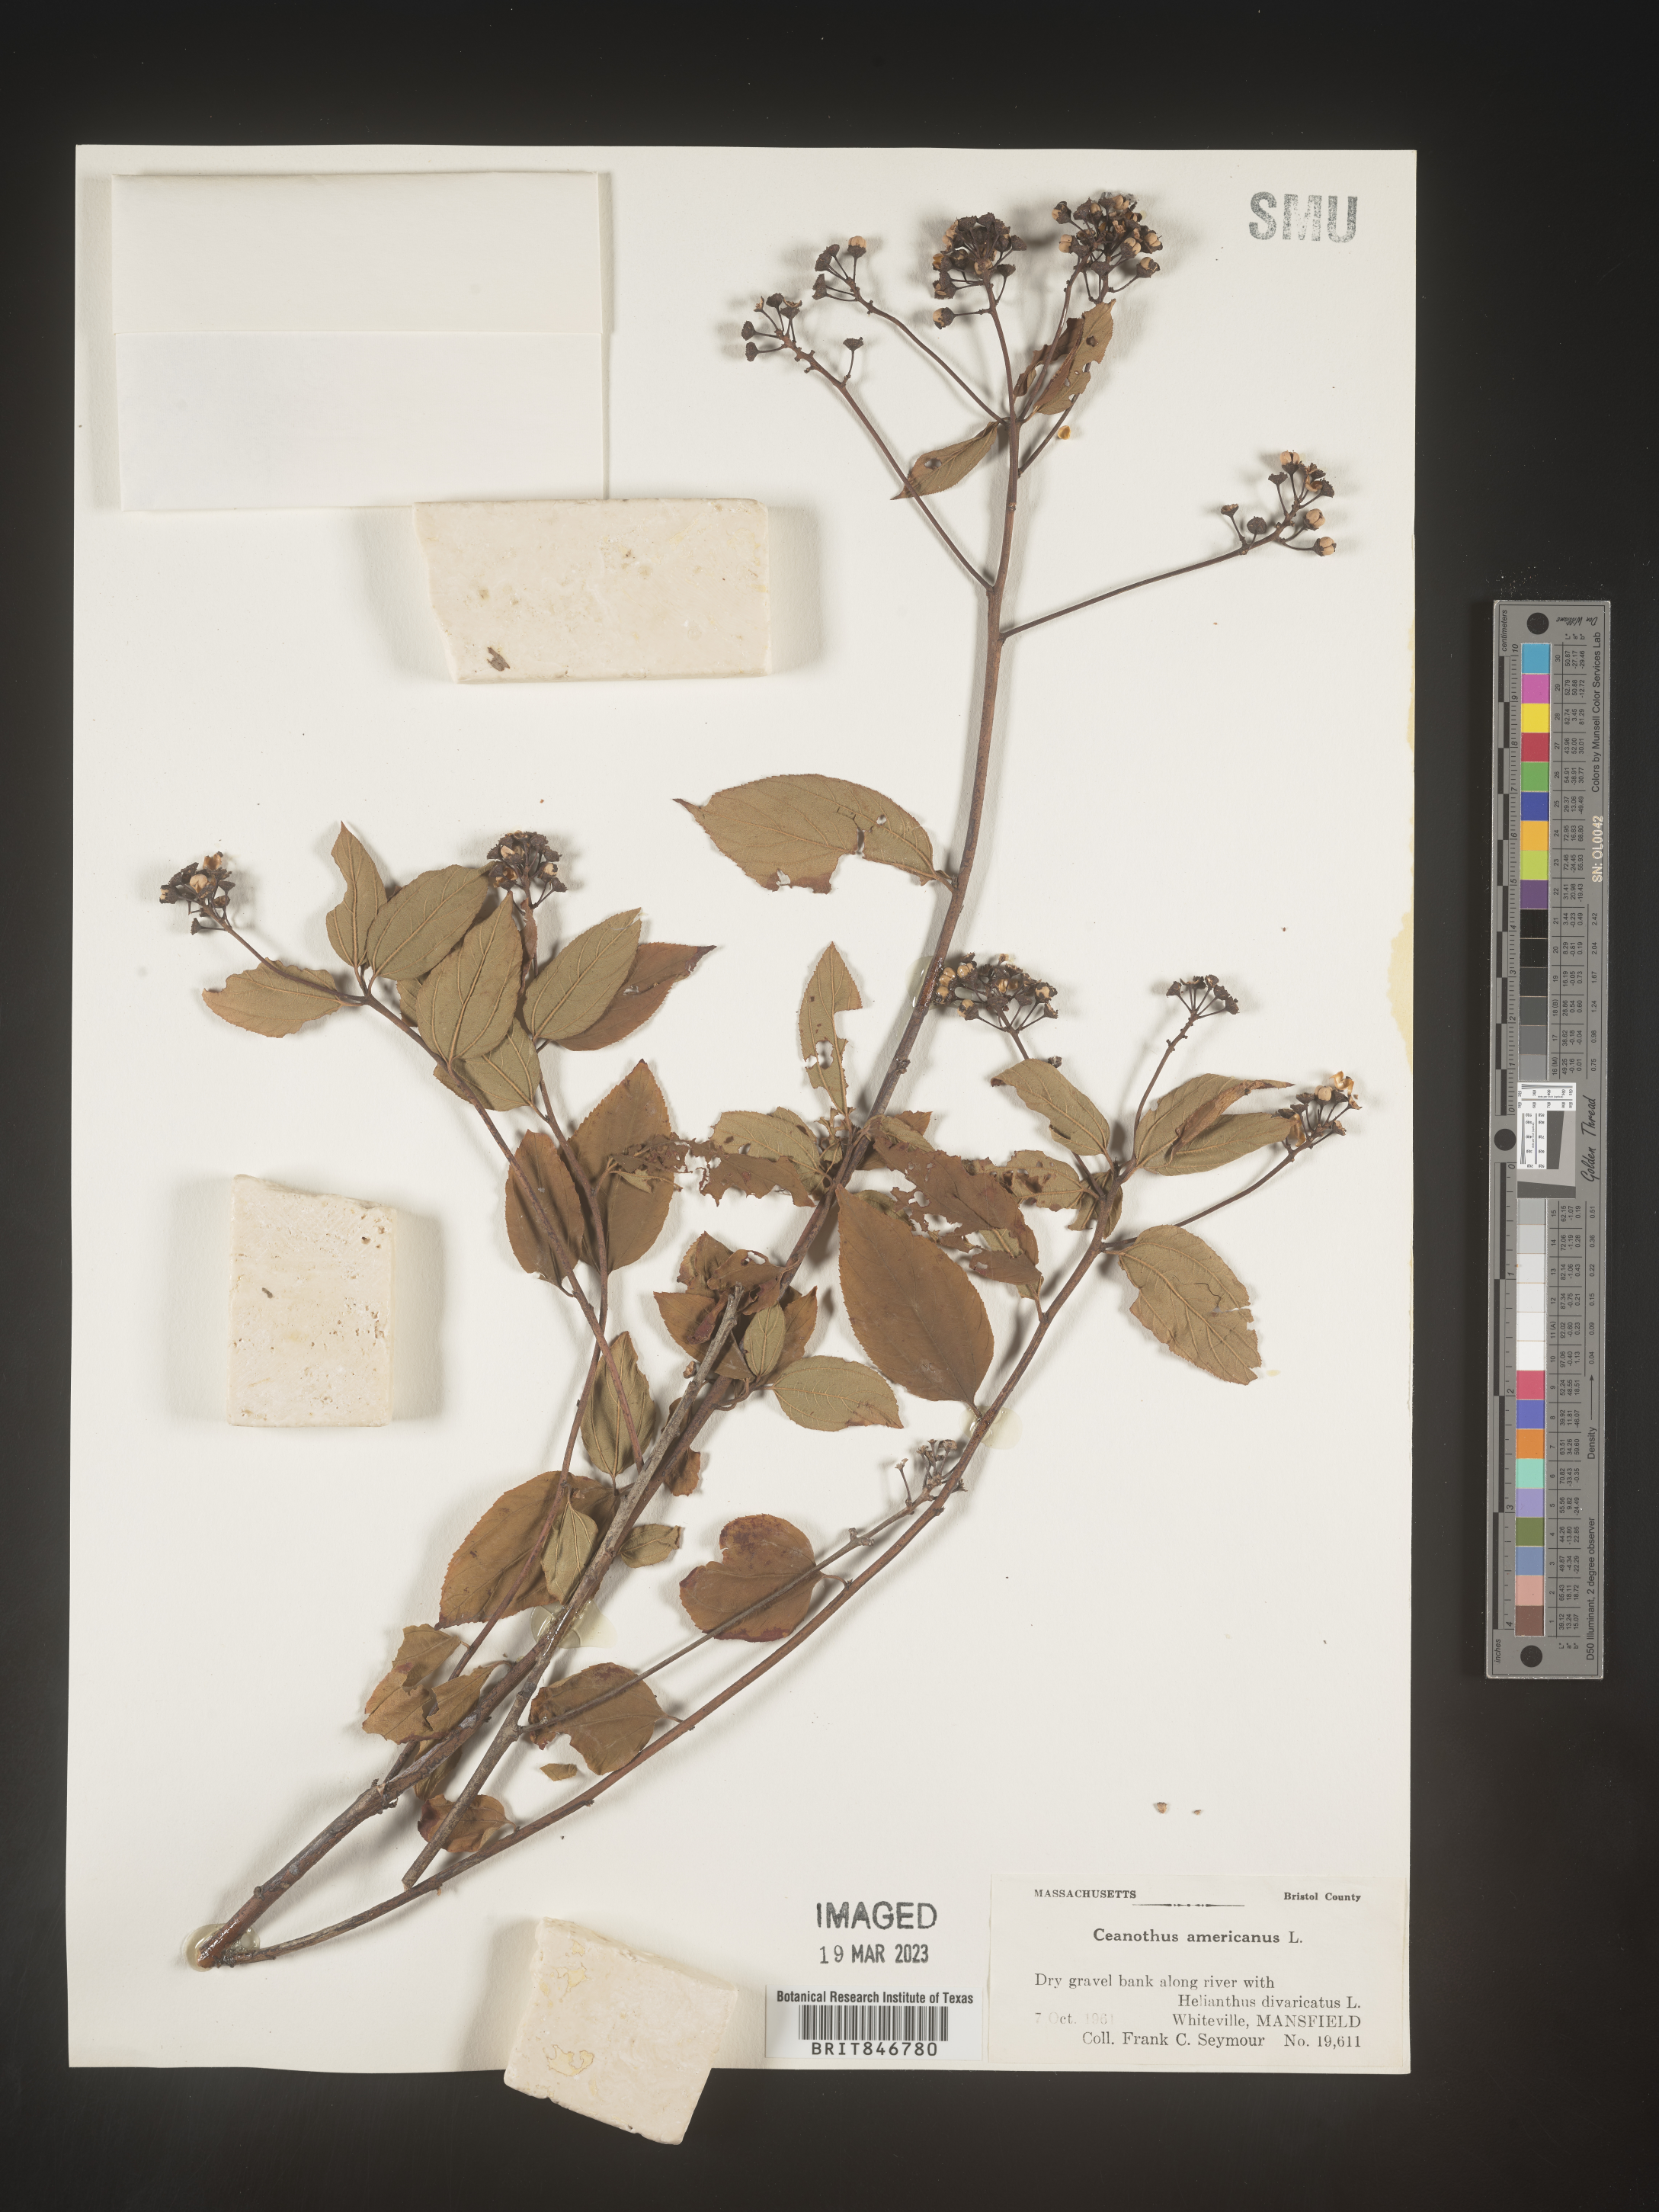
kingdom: Plantae
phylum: Tracheophyta
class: Magnoliopsida
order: Rosales
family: Rhamnaceae
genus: Ceanothus
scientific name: Ceanothus americanus
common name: Redroot
